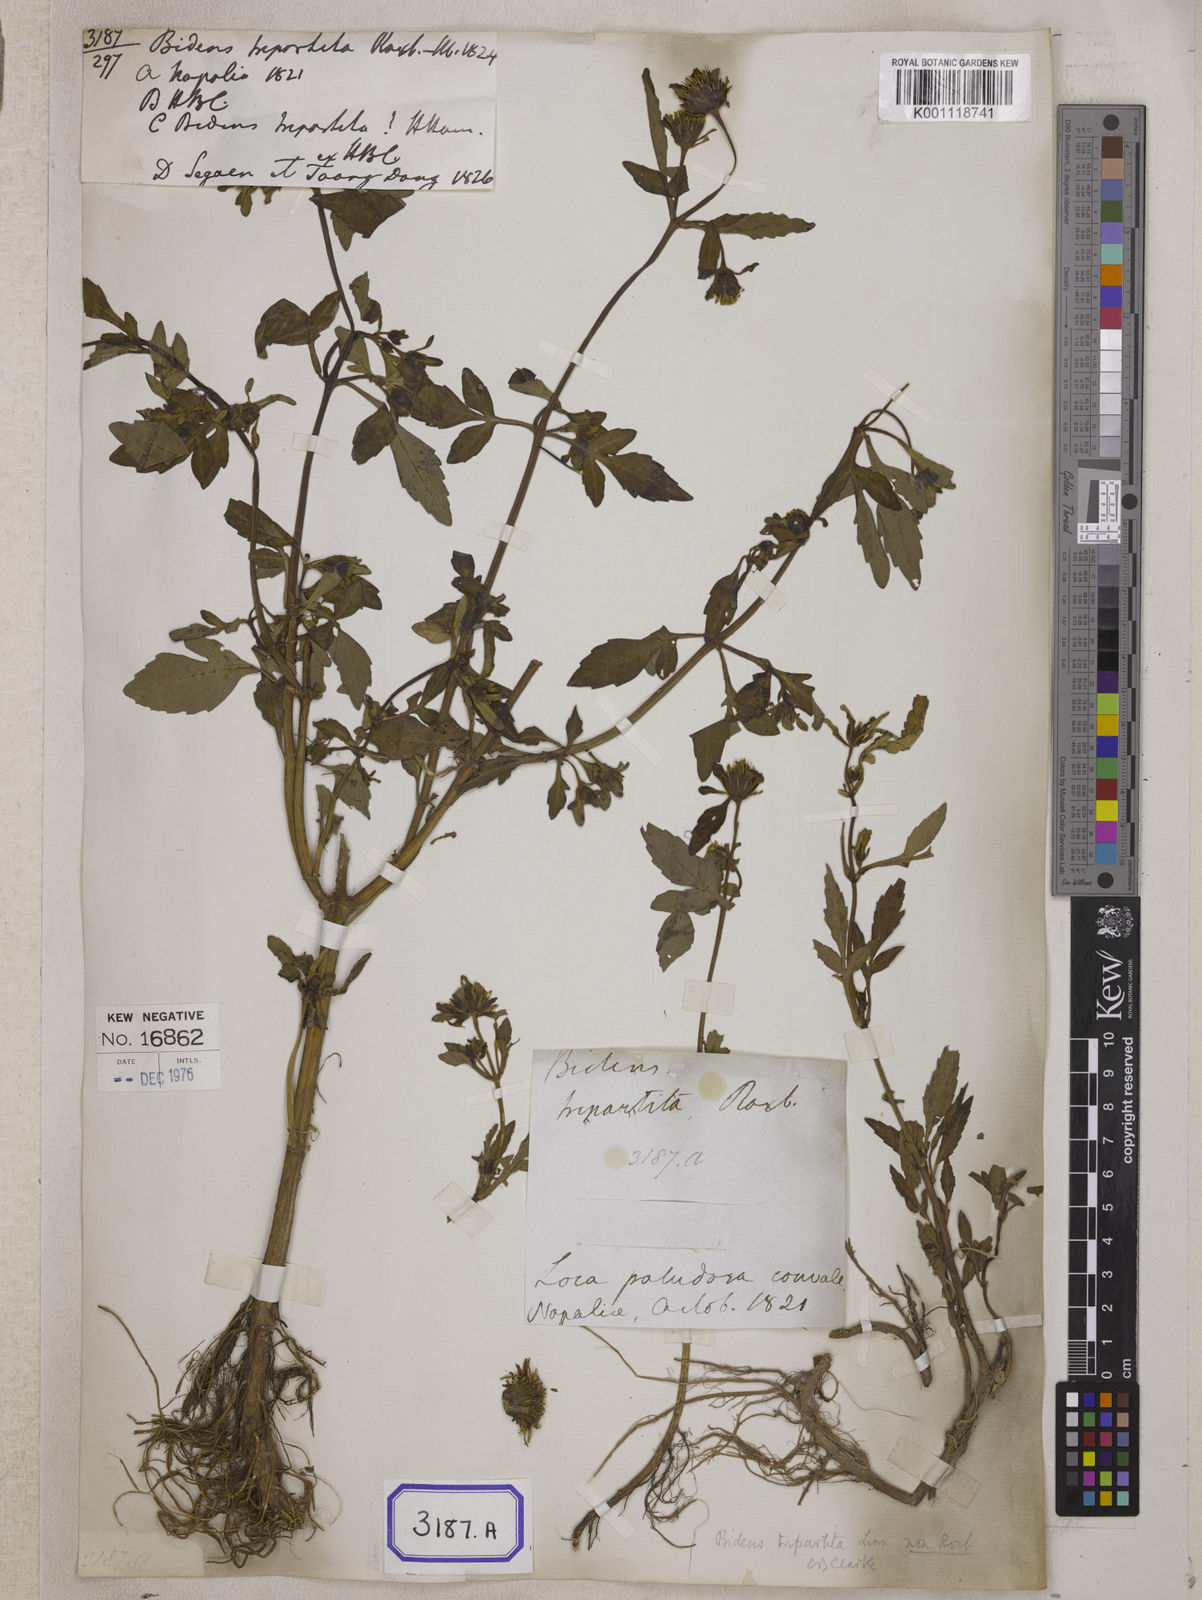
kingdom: Plantae
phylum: Tracheophyta
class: Magnoliopsida
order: Asterales
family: Asteraceae
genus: Bidens
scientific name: Bidens
